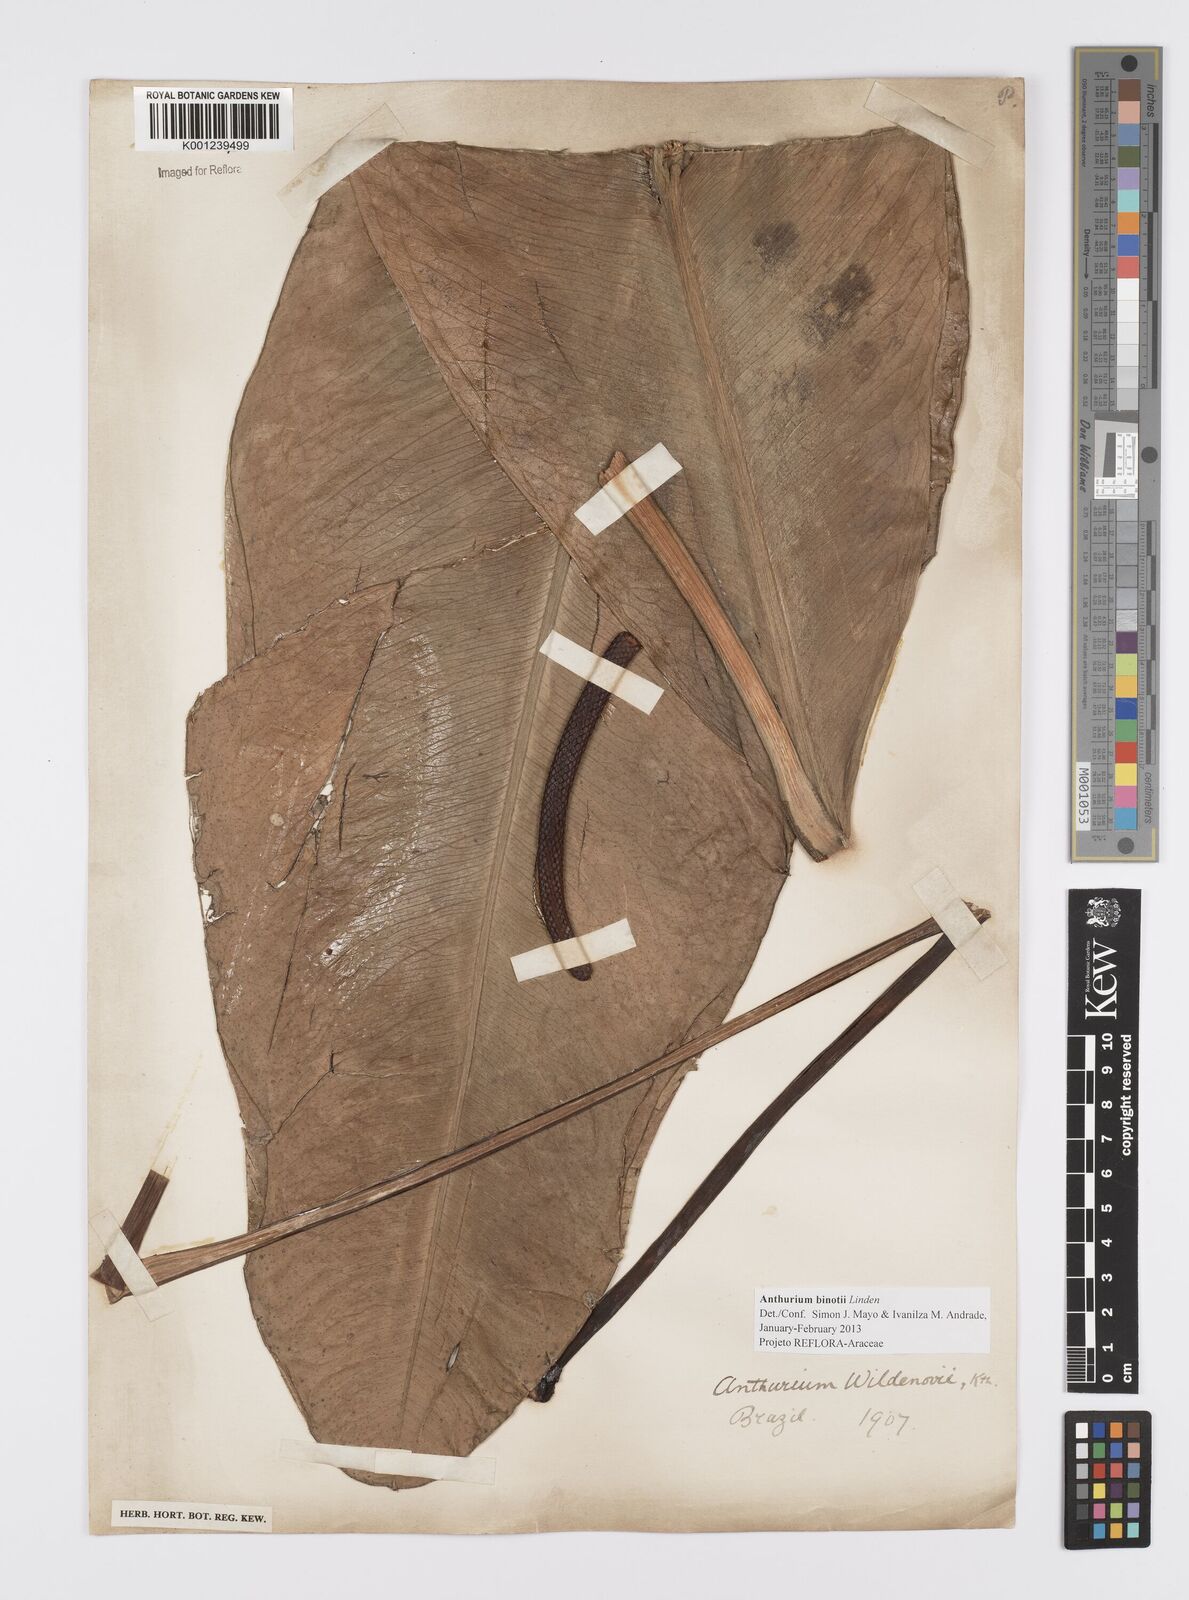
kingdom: Plantae
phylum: Tracheophyta
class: Liliopsida
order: Alismatales
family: Araceae
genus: Anthurium
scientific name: Anthurium binotii
